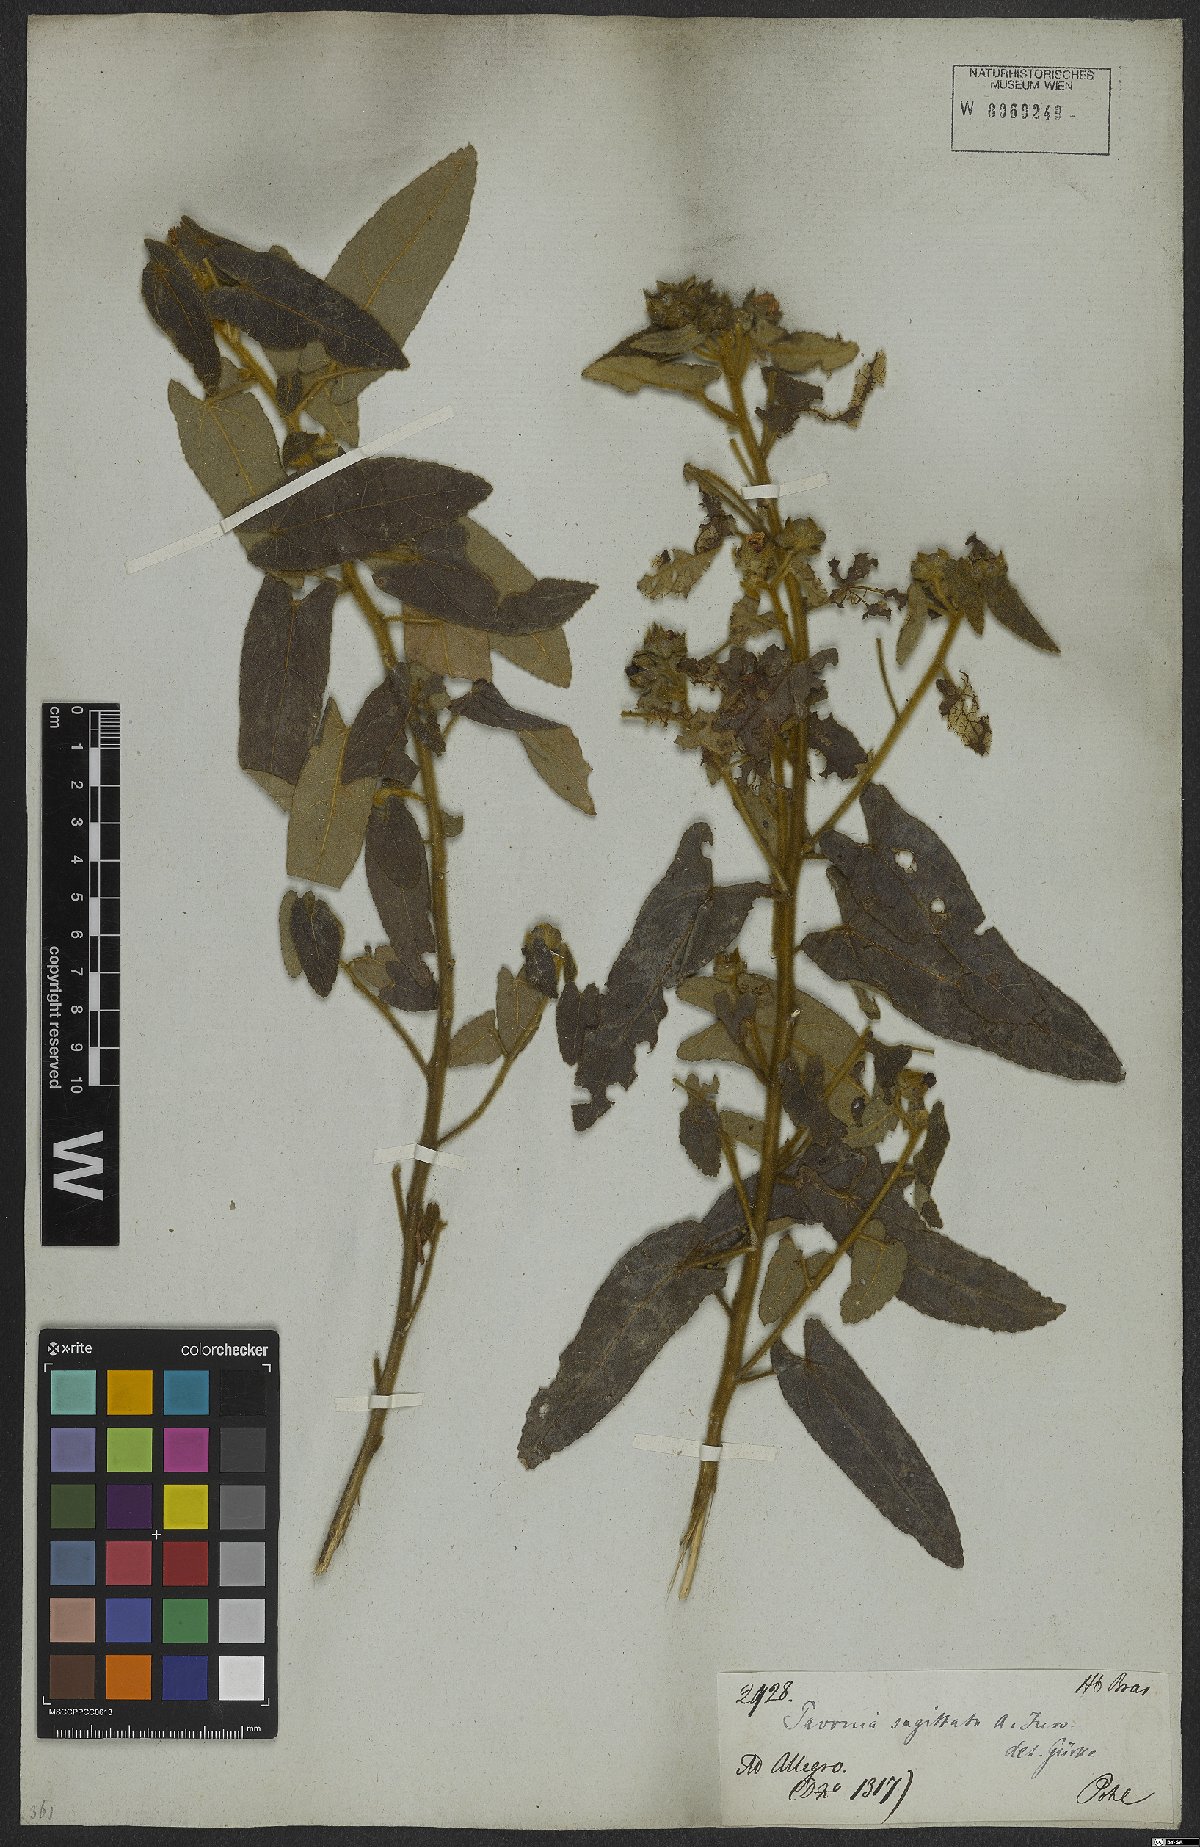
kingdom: Plantae
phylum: Tracheophyta
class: Magnoliopsida
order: Malvales
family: Malvaceae
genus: Pavonia
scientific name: Pavonia sagittata
